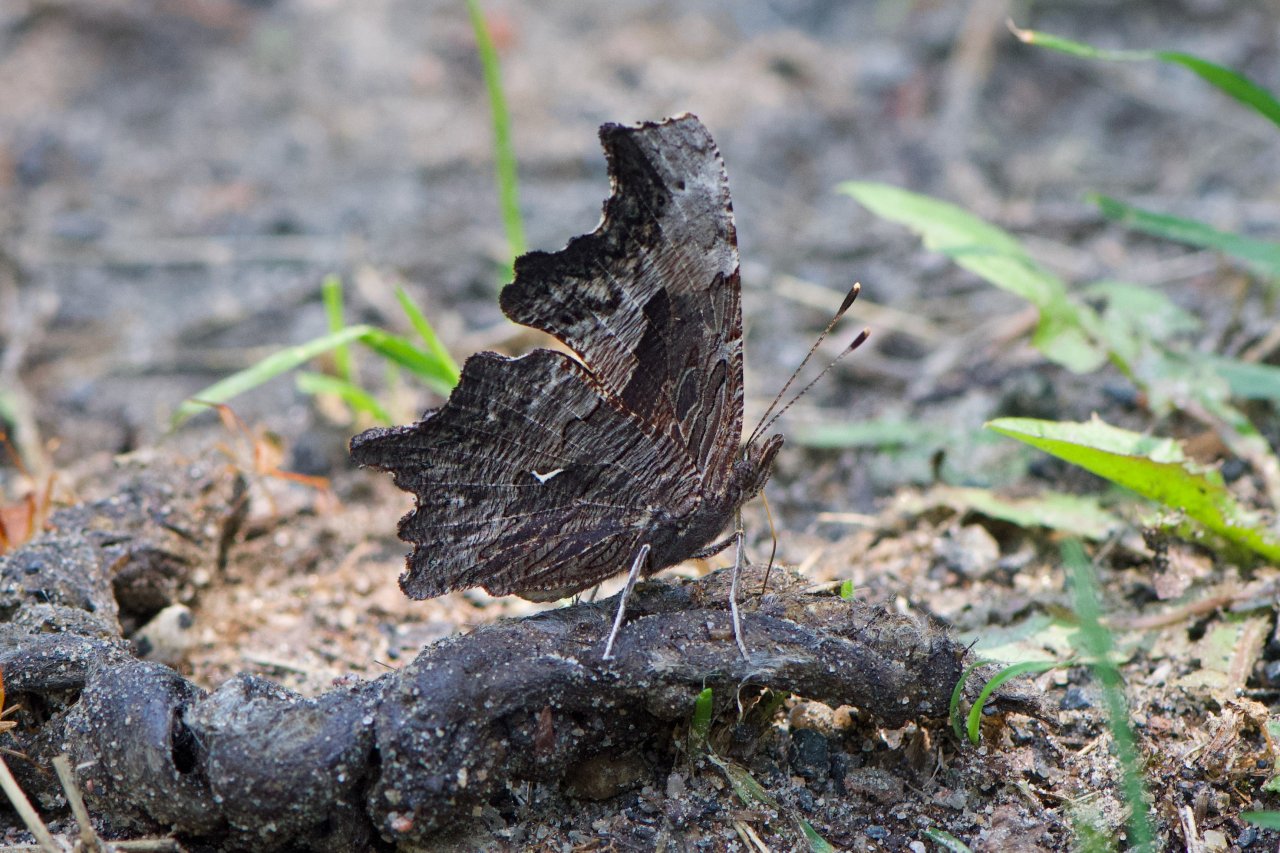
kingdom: Animalia
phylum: Arthropoda
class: Insecta
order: Lepidoptera
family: Nymphalidae
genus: Polygonia
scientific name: Polygonia progne
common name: Gray Comma
